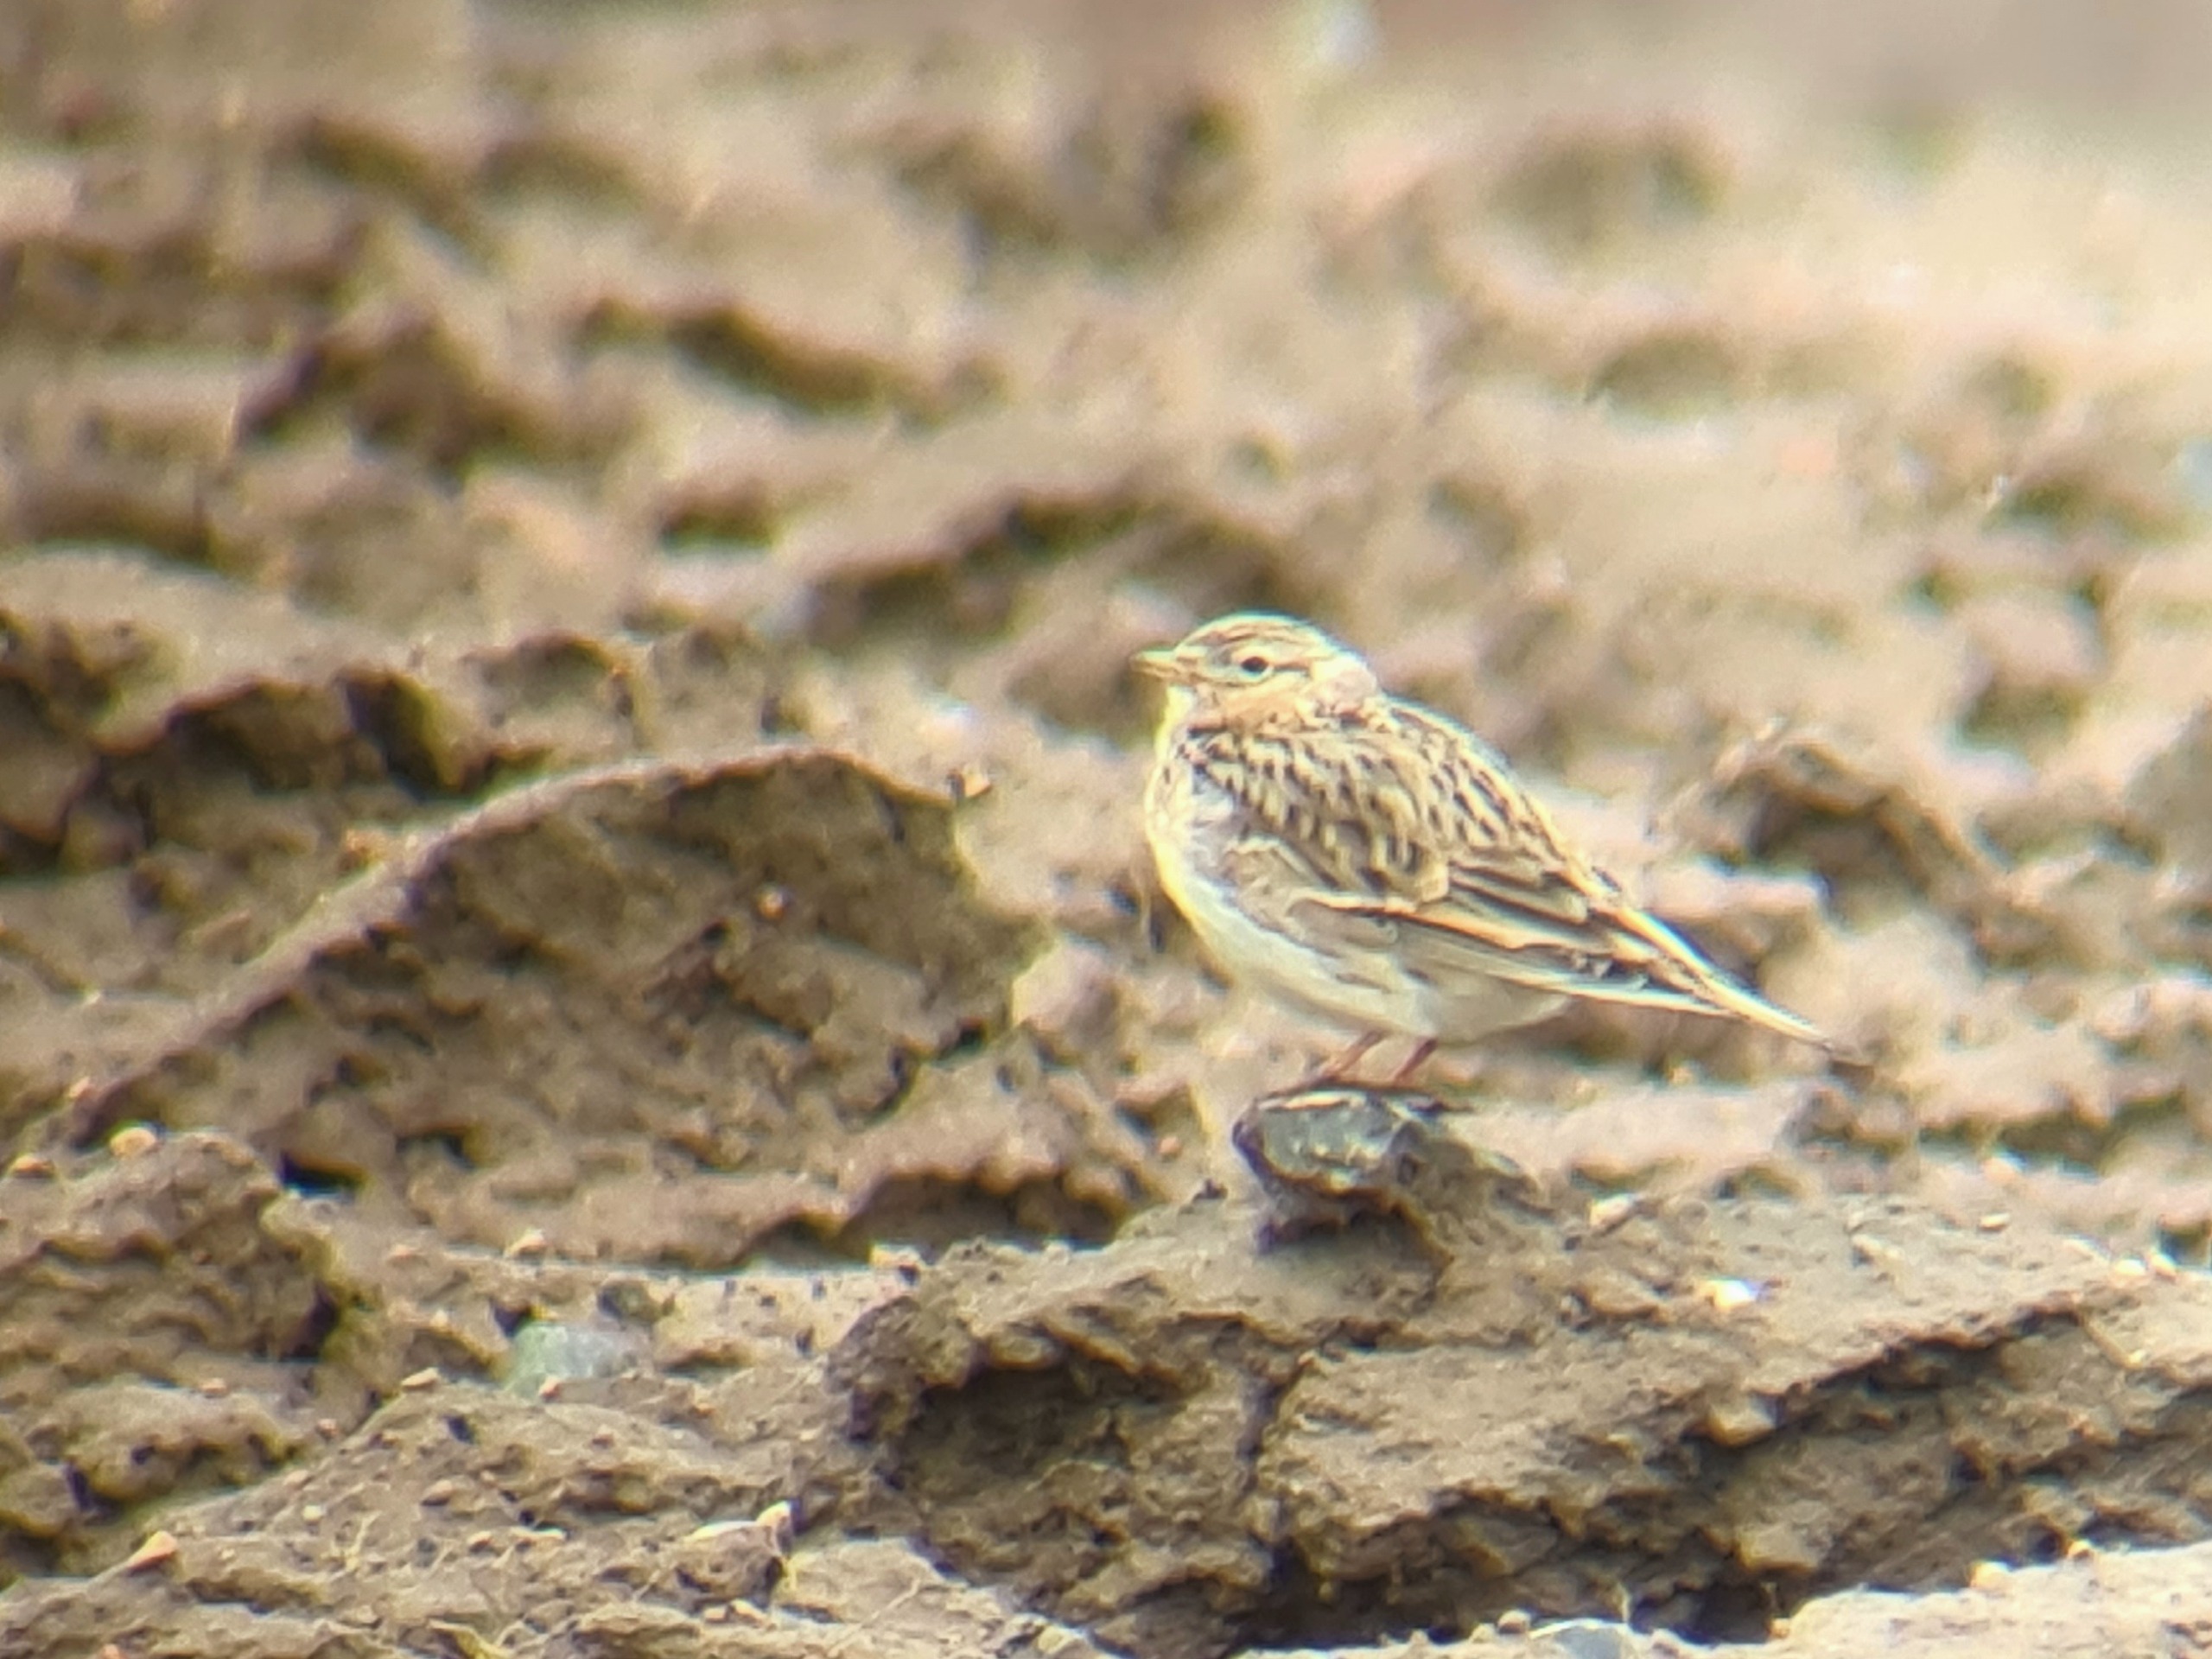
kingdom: Animalia
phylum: Chordata
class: Aves
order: Passeriformes
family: Alaudidae
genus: Alauda
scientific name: Alauda arvensis
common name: Sanglærke
